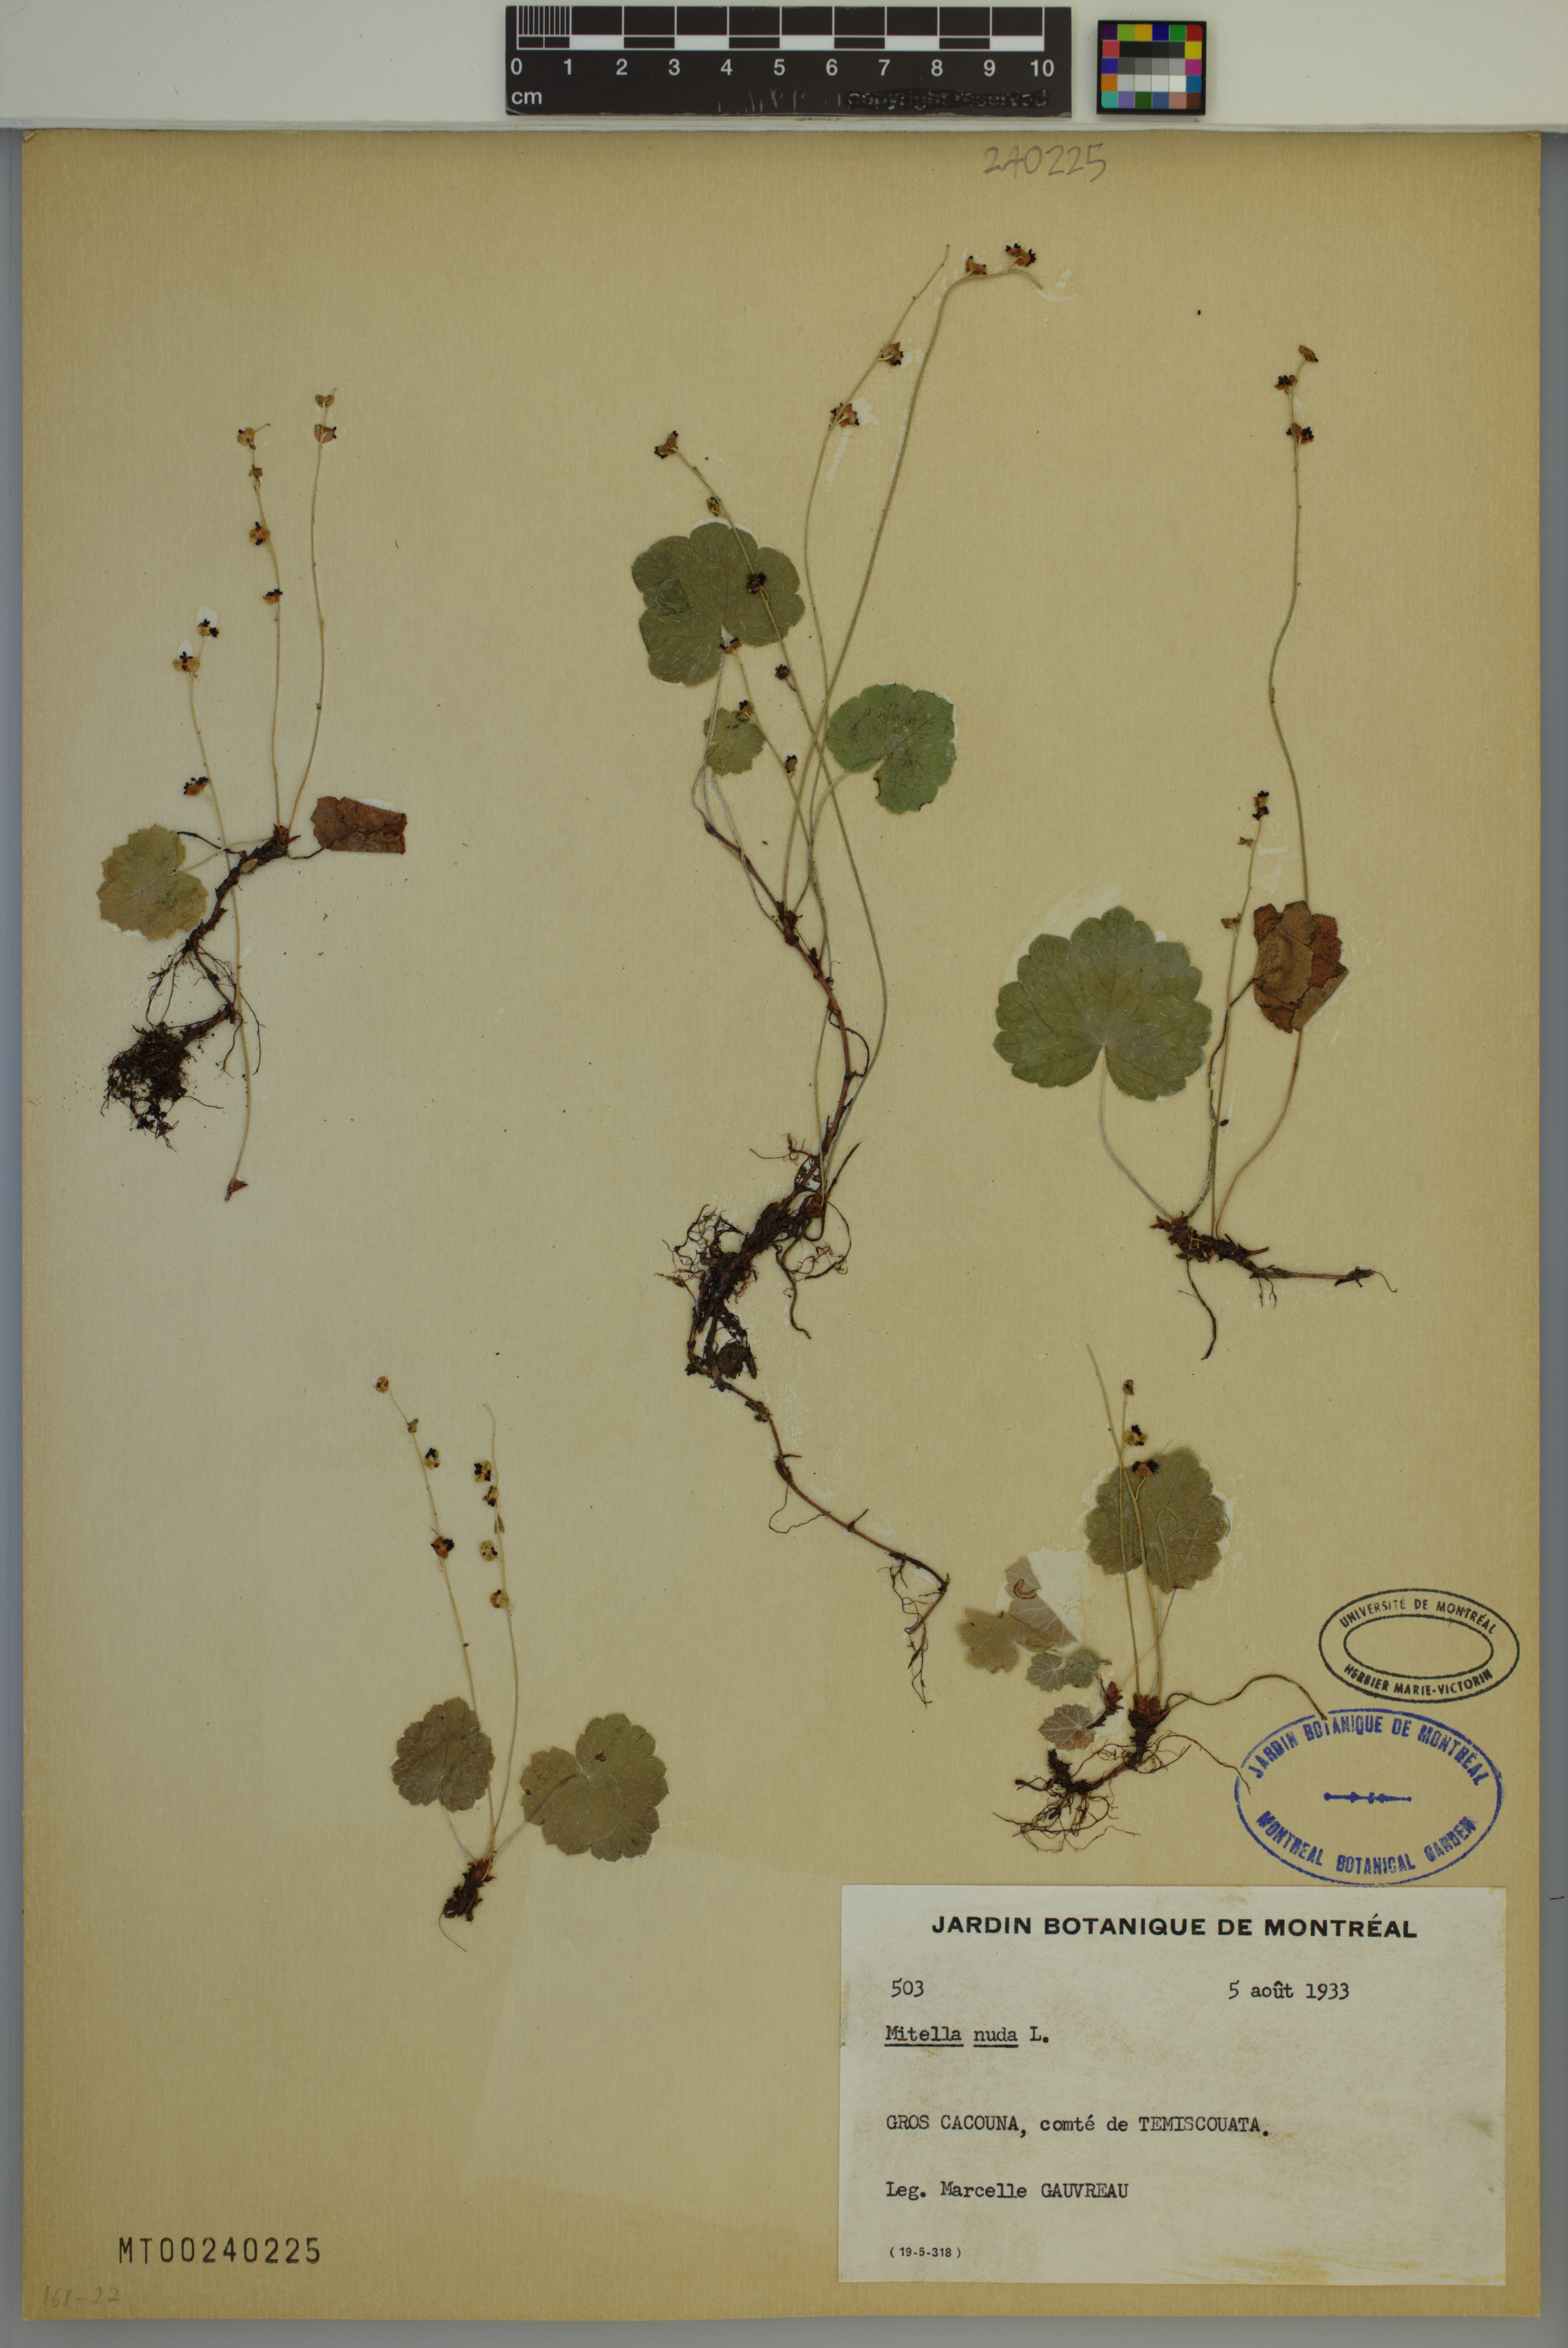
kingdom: Plantae
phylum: Tracheophyta
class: Magnoliopsida
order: Saxifragales
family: Saxifragaceae
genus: Mitella
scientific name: Mitella nuda
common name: Bare-stemmed bishop's-cap
